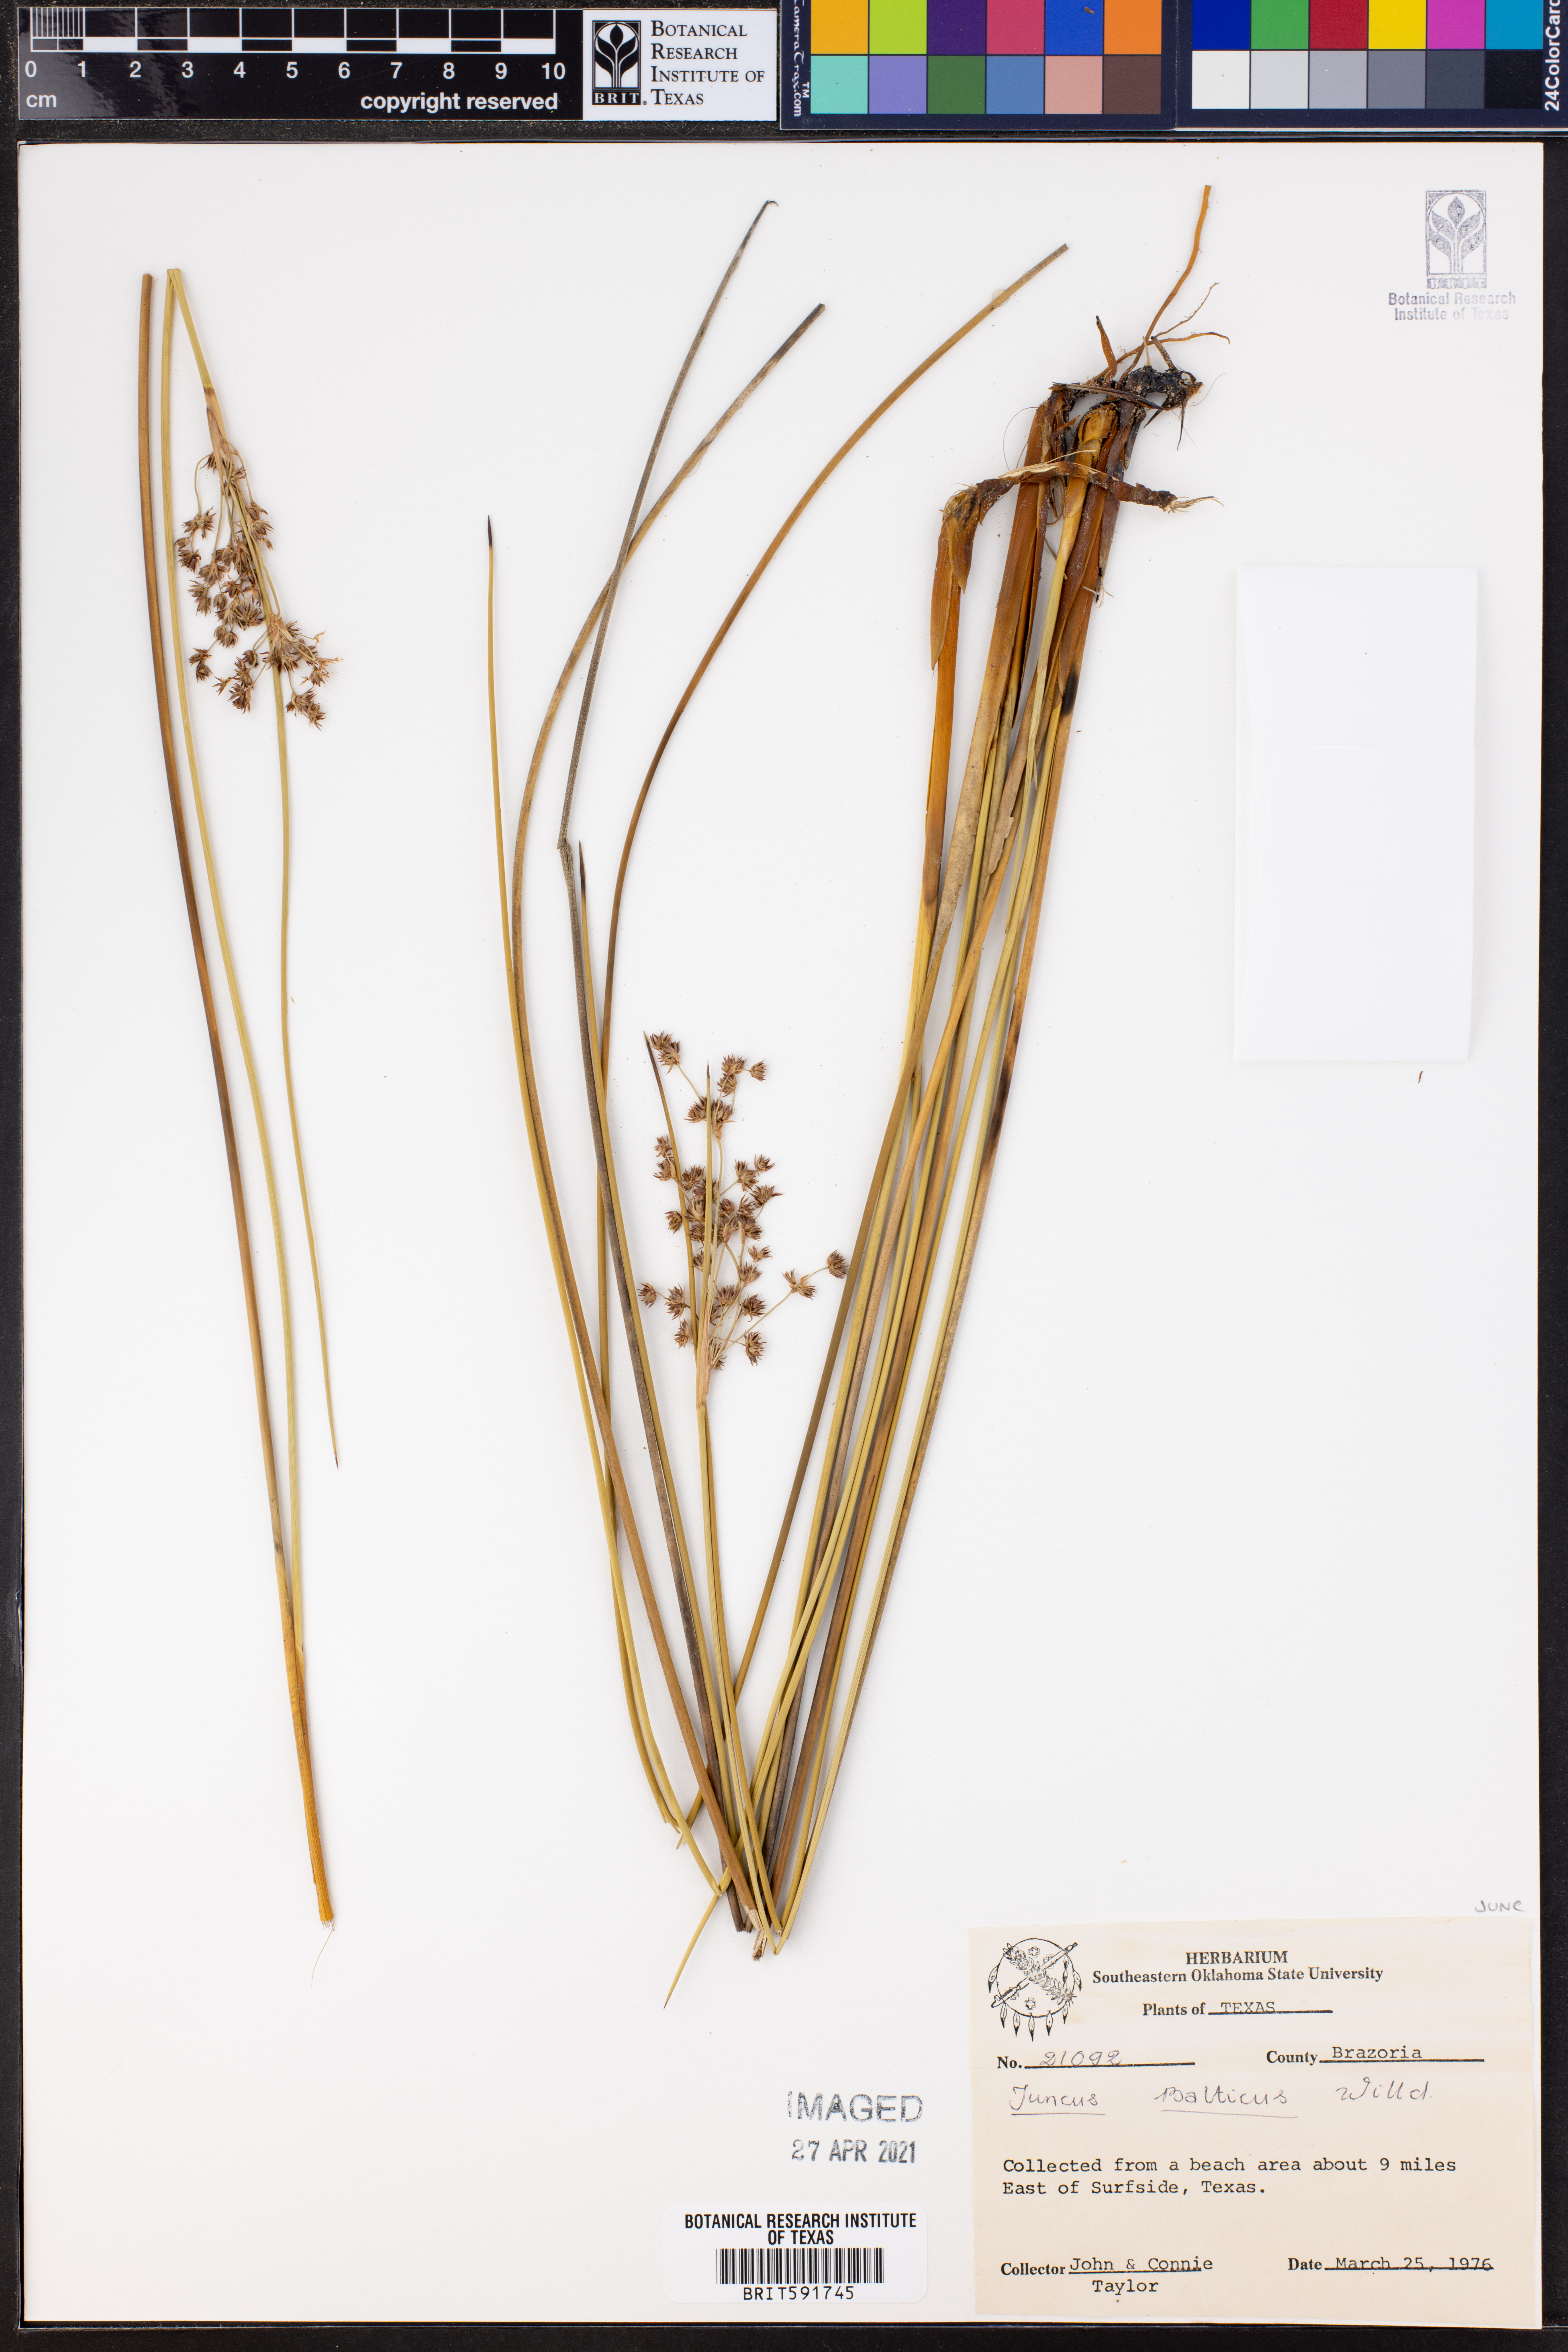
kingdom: Plantae
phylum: Tracheophyta
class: Liliopsida
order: Poales
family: Juncaceae
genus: Juncus
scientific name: Juncus balticus
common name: Baltic rush
